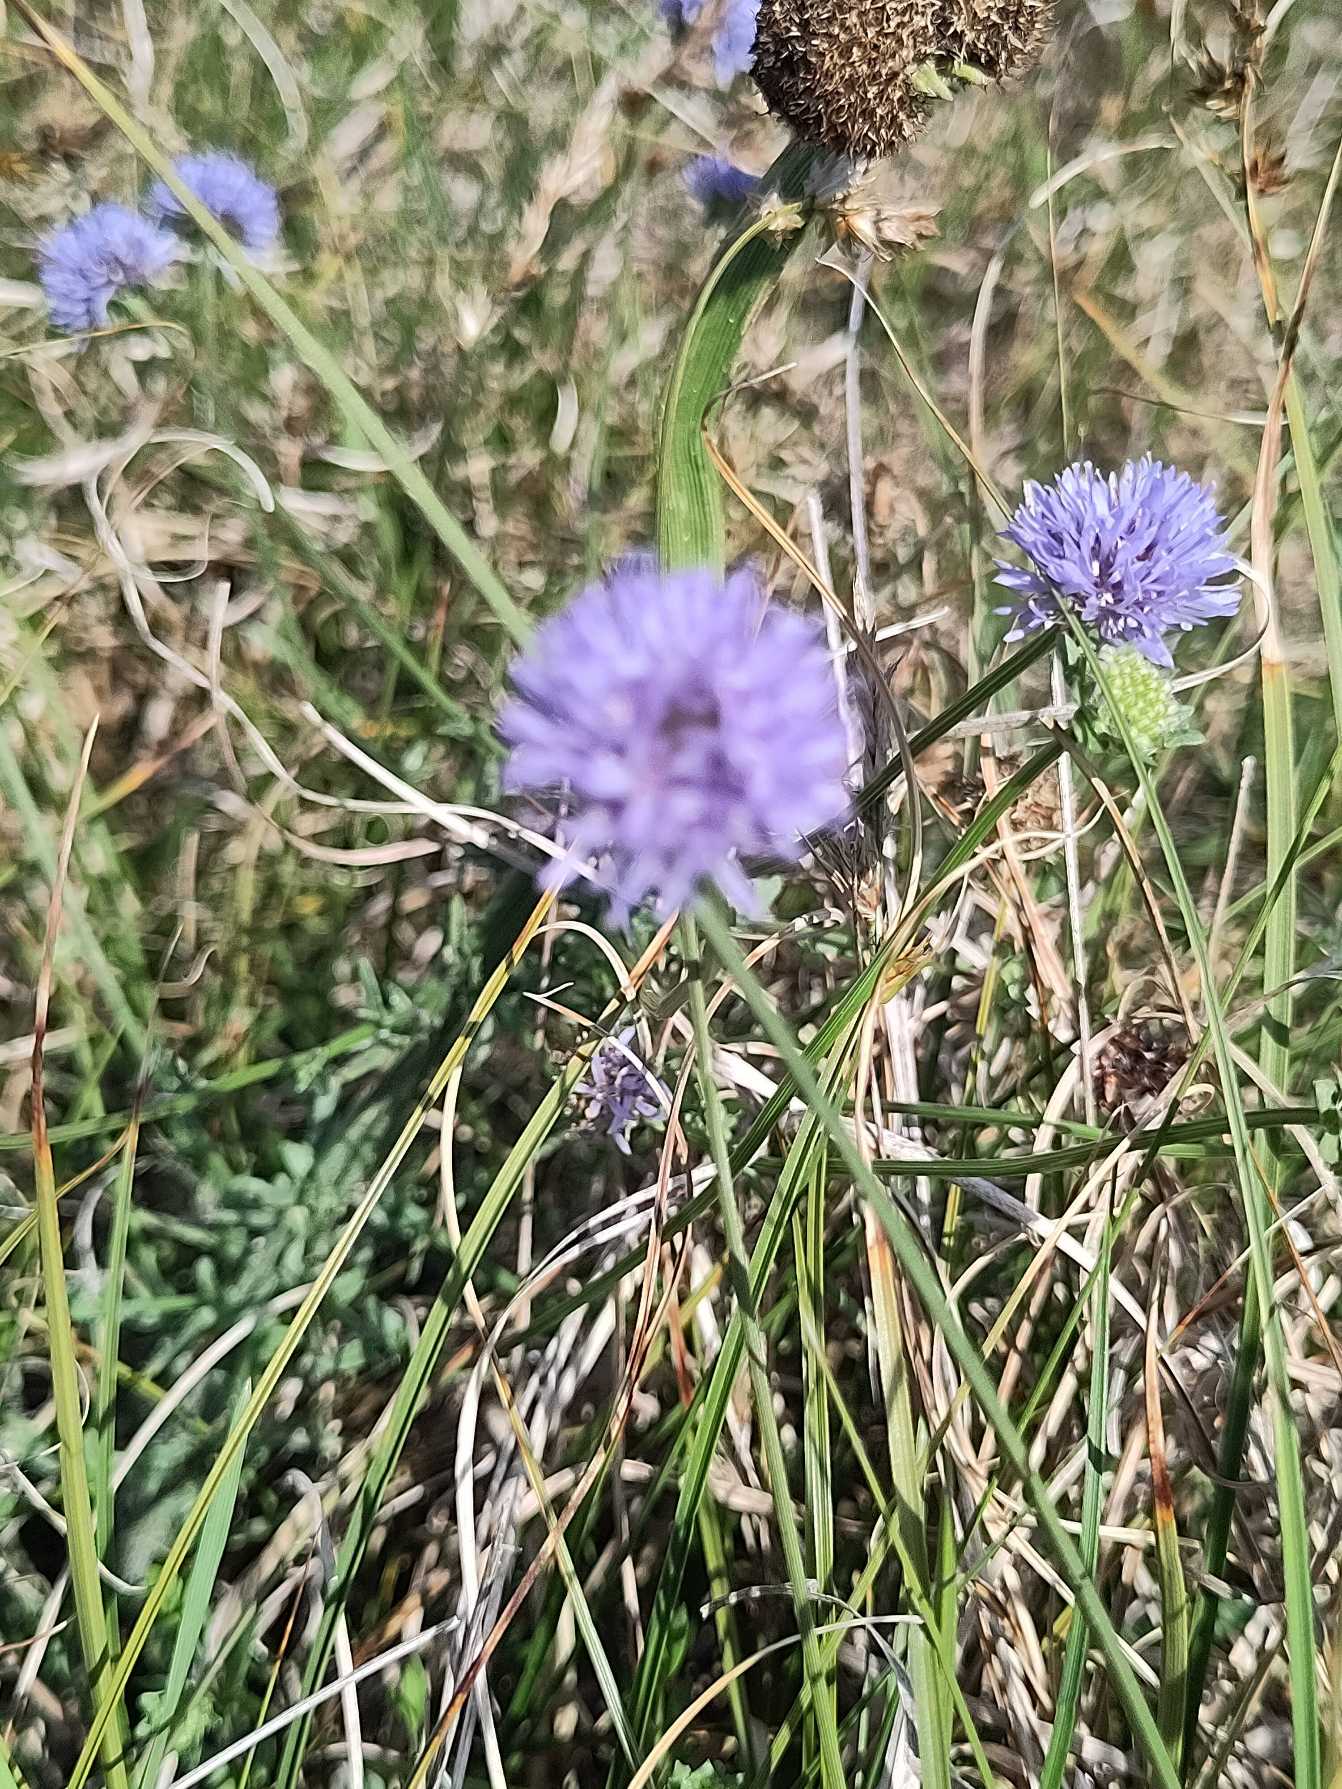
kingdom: Plantae
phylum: Tracheophyta
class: Magnoliopsida
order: Asterales
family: Campanulaceae
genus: Jasione
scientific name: Jasione montana
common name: Blåmunke
